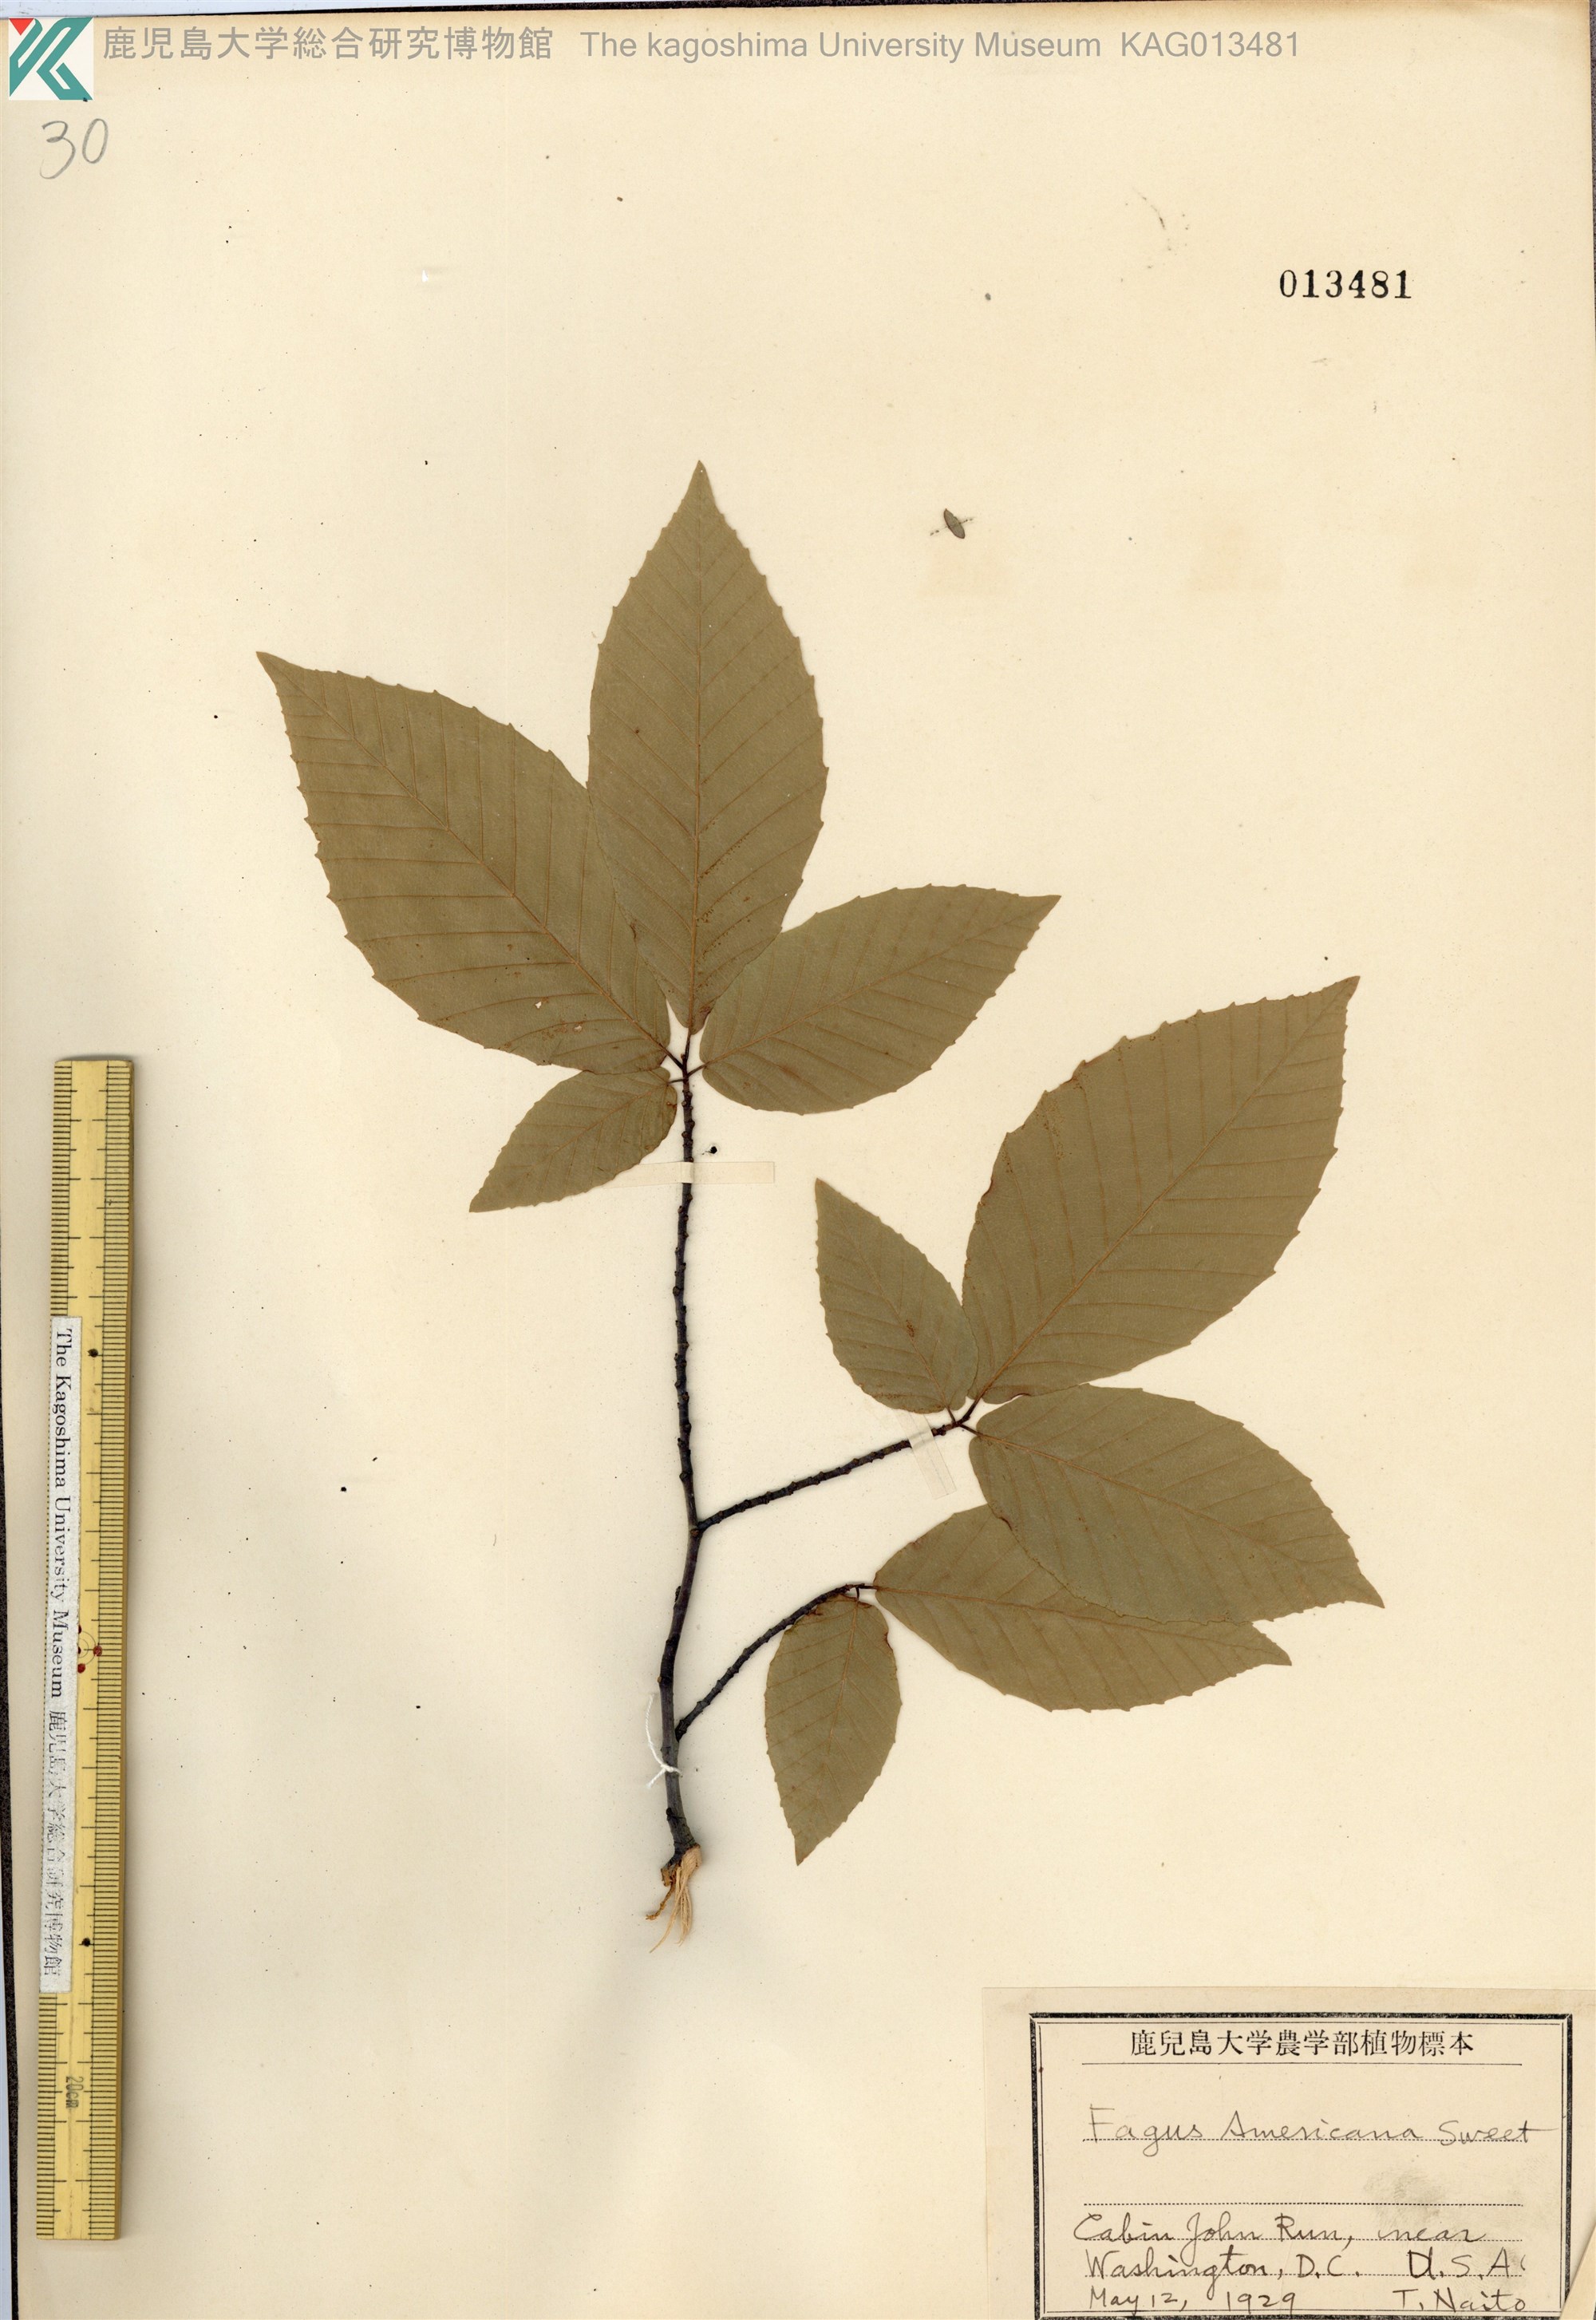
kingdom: Plantae
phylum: Tracheophyta
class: Magnoliopsida
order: Fagales
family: Fagaceae
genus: Fagus
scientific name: Fagus grandifolia
